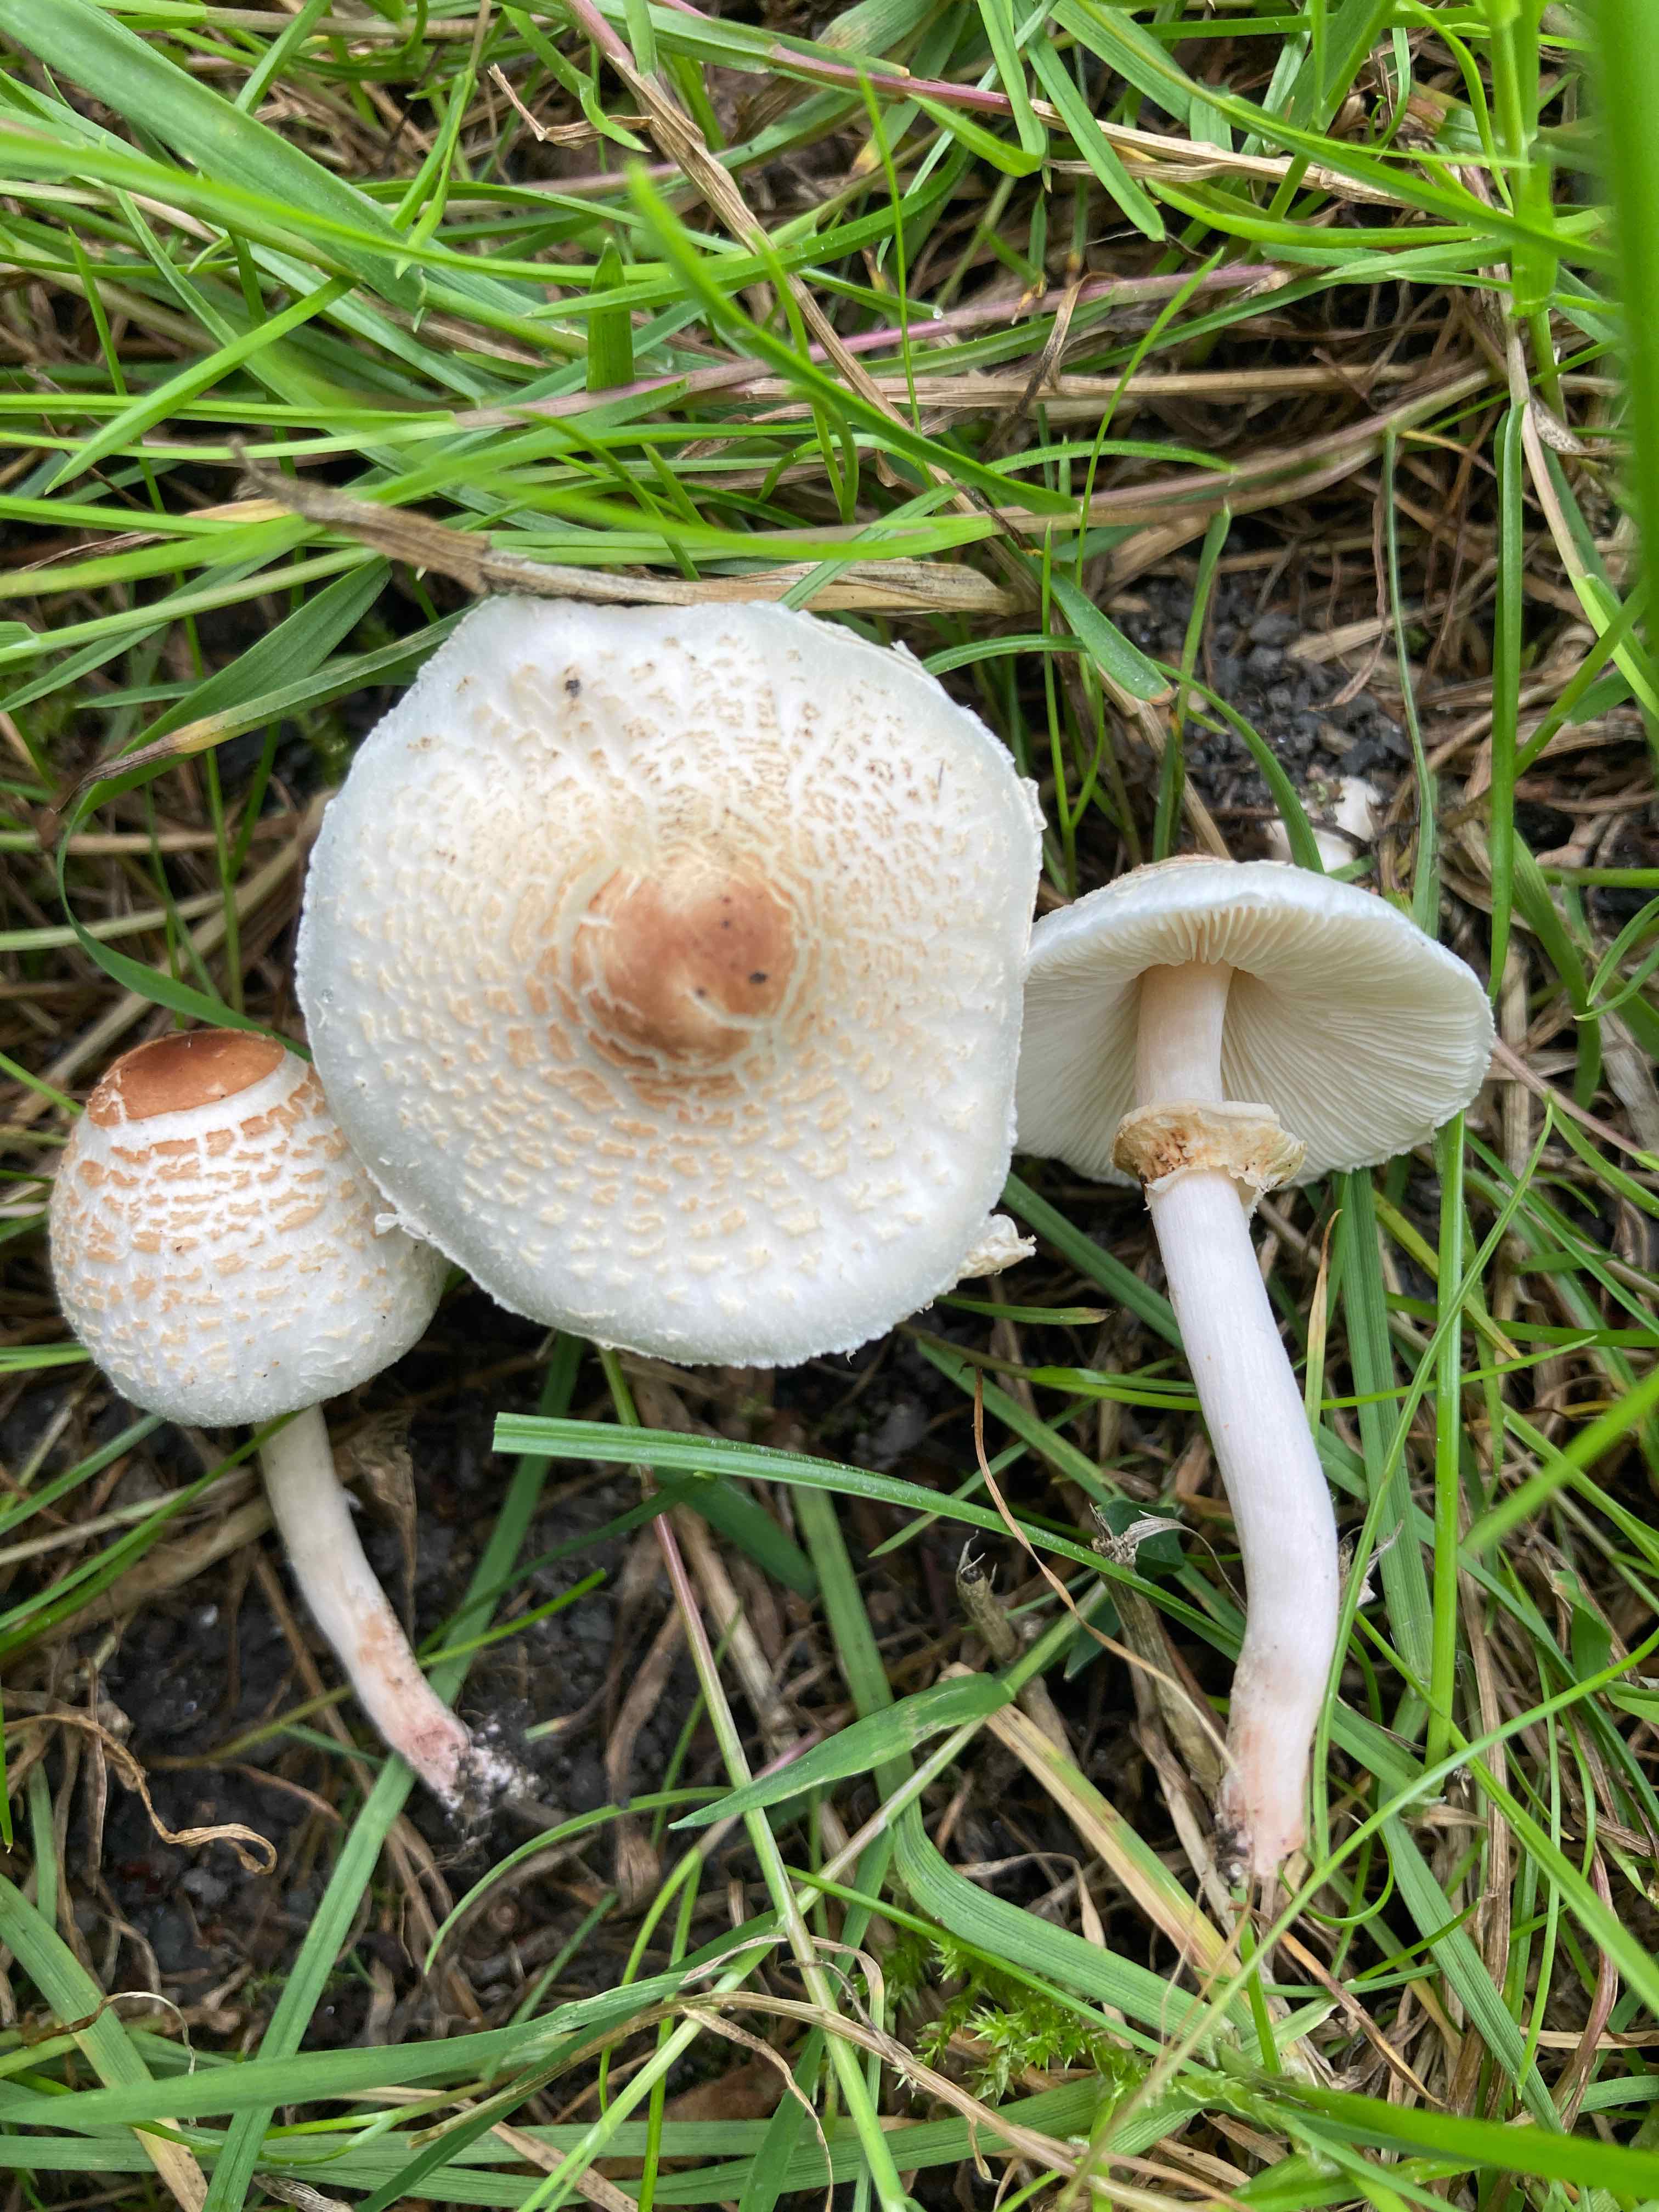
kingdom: Fungi
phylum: Basidiomycota
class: Agaricomycetes
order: Agaricales
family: Agaricaceae
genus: Lepiota
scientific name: Lepiota cristata
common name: stinkende parasolhat
